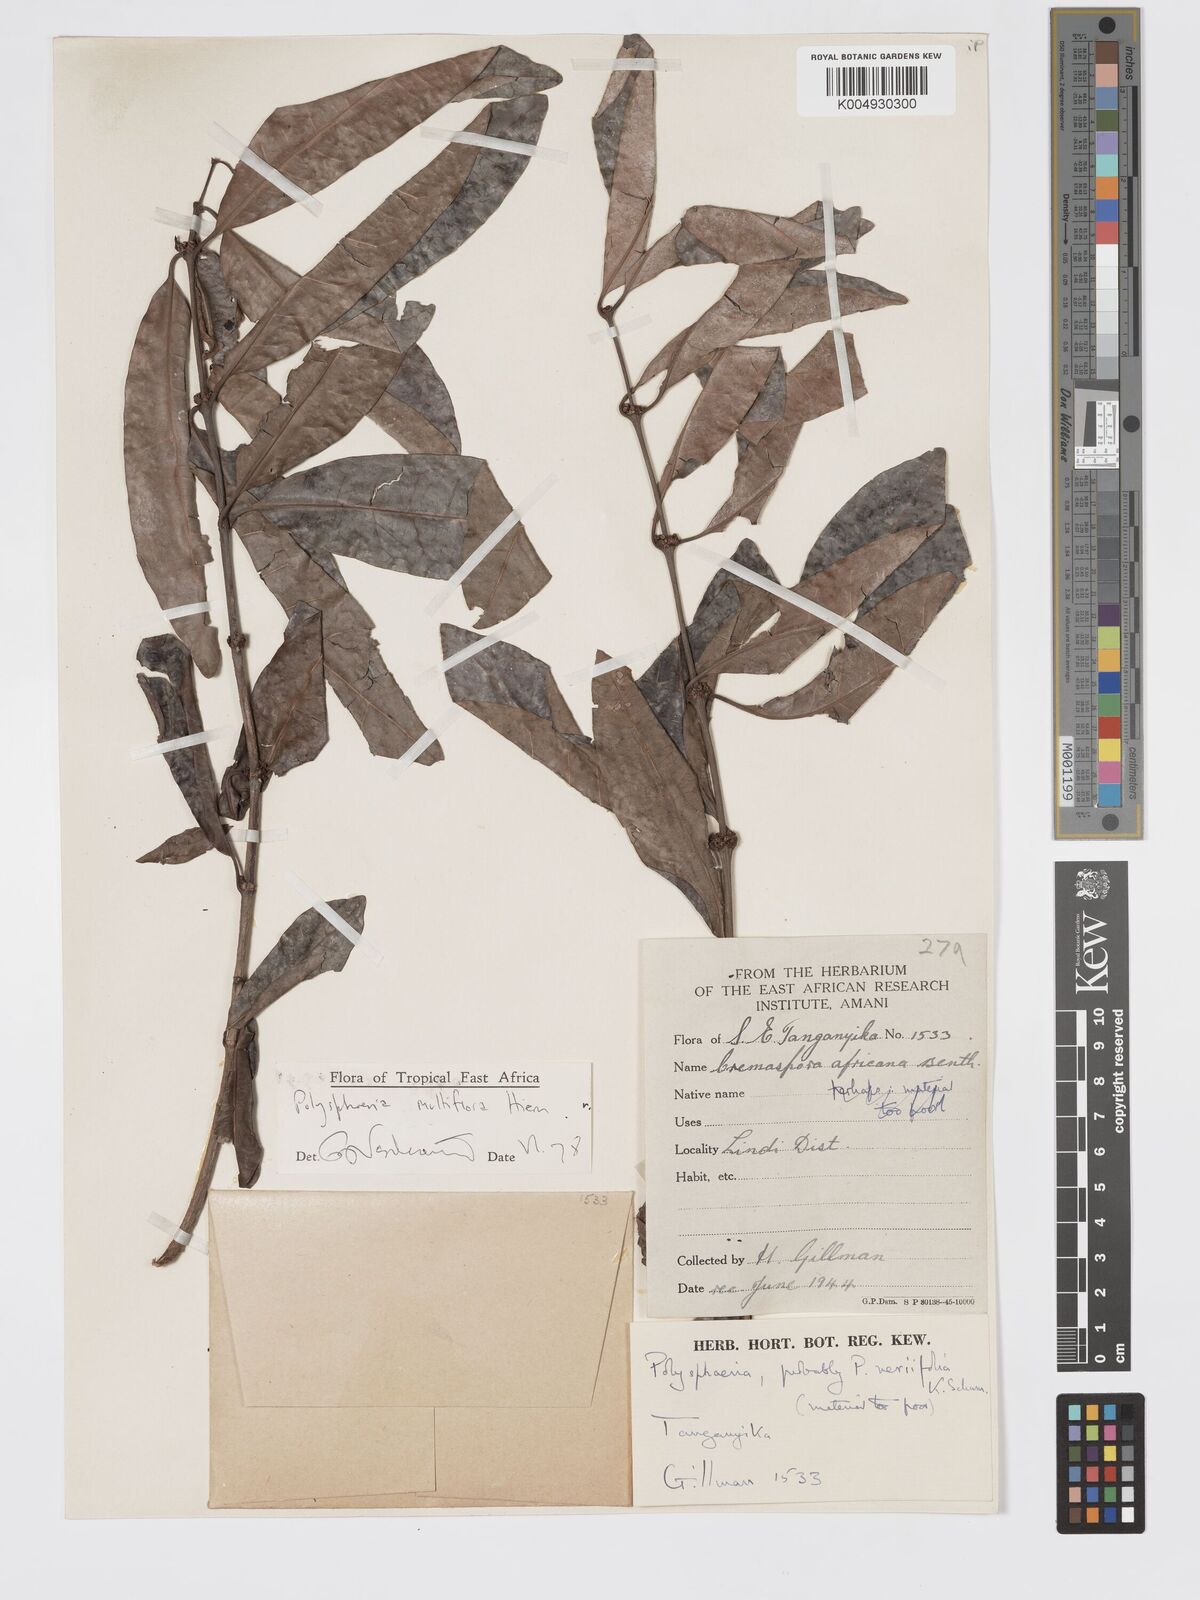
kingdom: Plantae
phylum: Tracheophyta
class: Magnoliopsida
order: Gentianales
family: Rubiaceae
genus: Polysphaeria
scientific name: Polysphaeria multiflora
